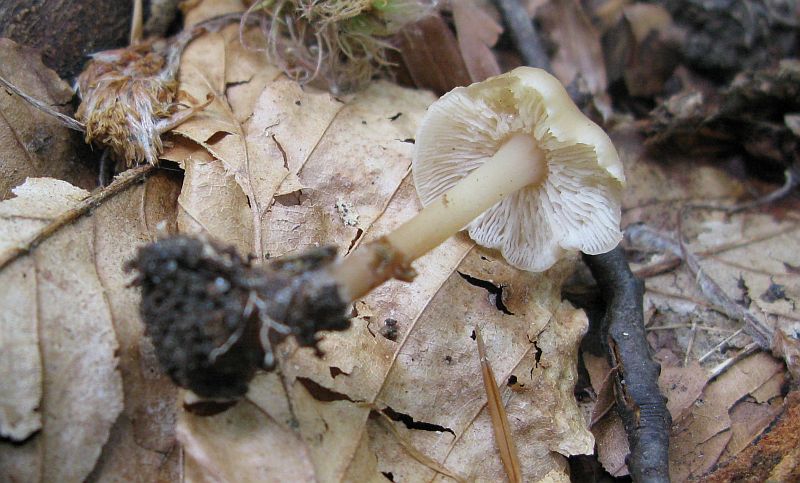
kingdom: Fungi
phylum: Basidiomycota
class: Agaricomycetes
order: Agaricales
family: Omphalotaceae
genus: Gymnopus
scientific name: Gymnopus aquosus
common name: bleg fladhat
